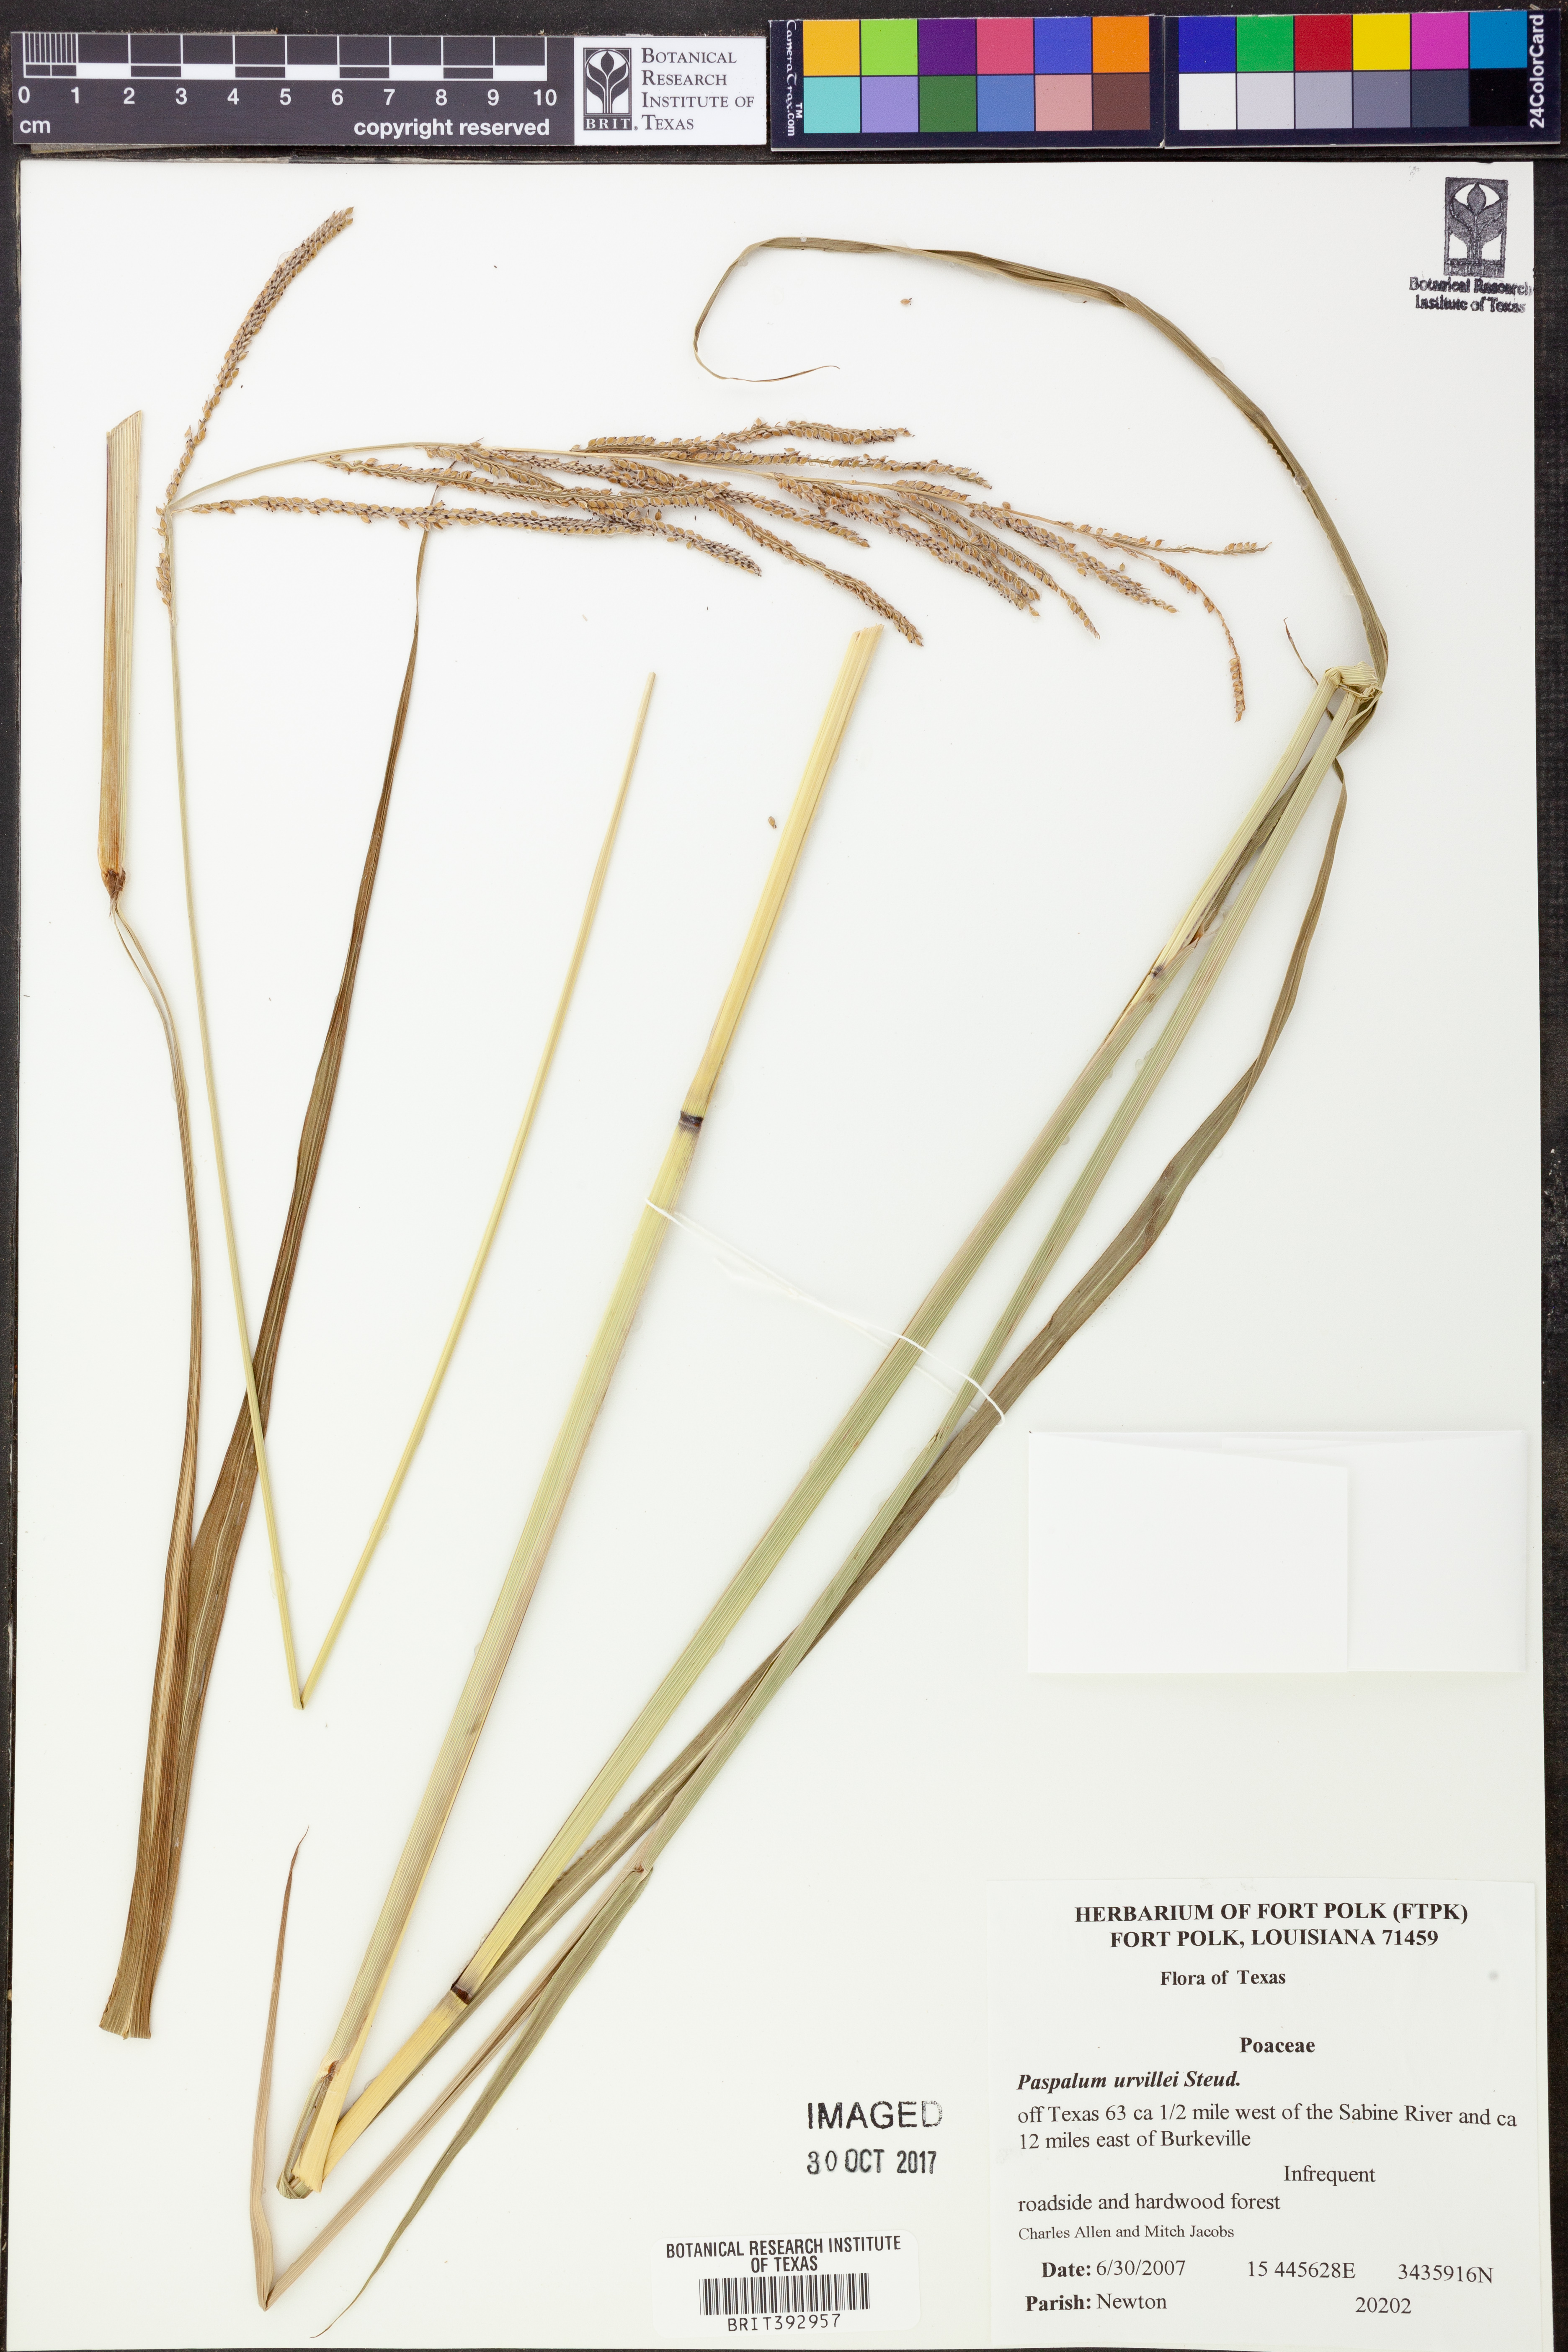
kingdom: Plantae
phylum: Tracheophyta
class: Liliopsida
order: Poales
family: Poaceae
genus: Paspalum
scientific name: Paspalum urvillei
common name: Vasey's grass
